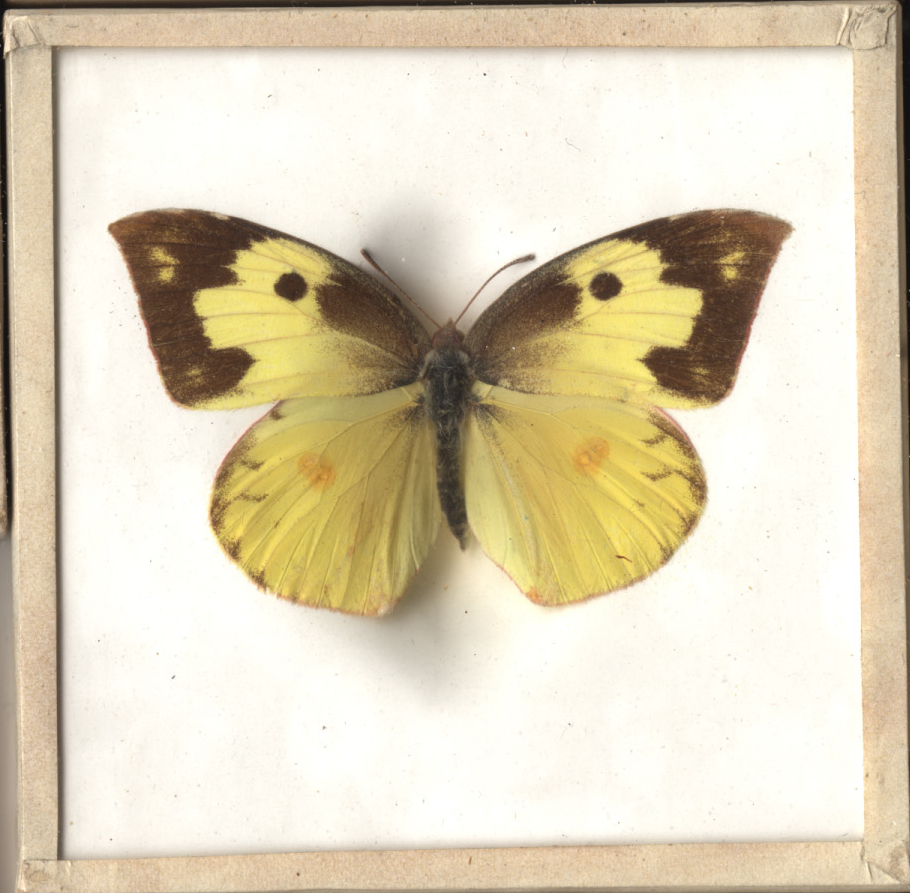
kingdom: Animalia
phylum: Arthropoda
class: Insecta
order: Lepidoptera
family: Pieridae
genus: Zerene
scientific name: Zerene cesonia
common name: Southern Dogface
